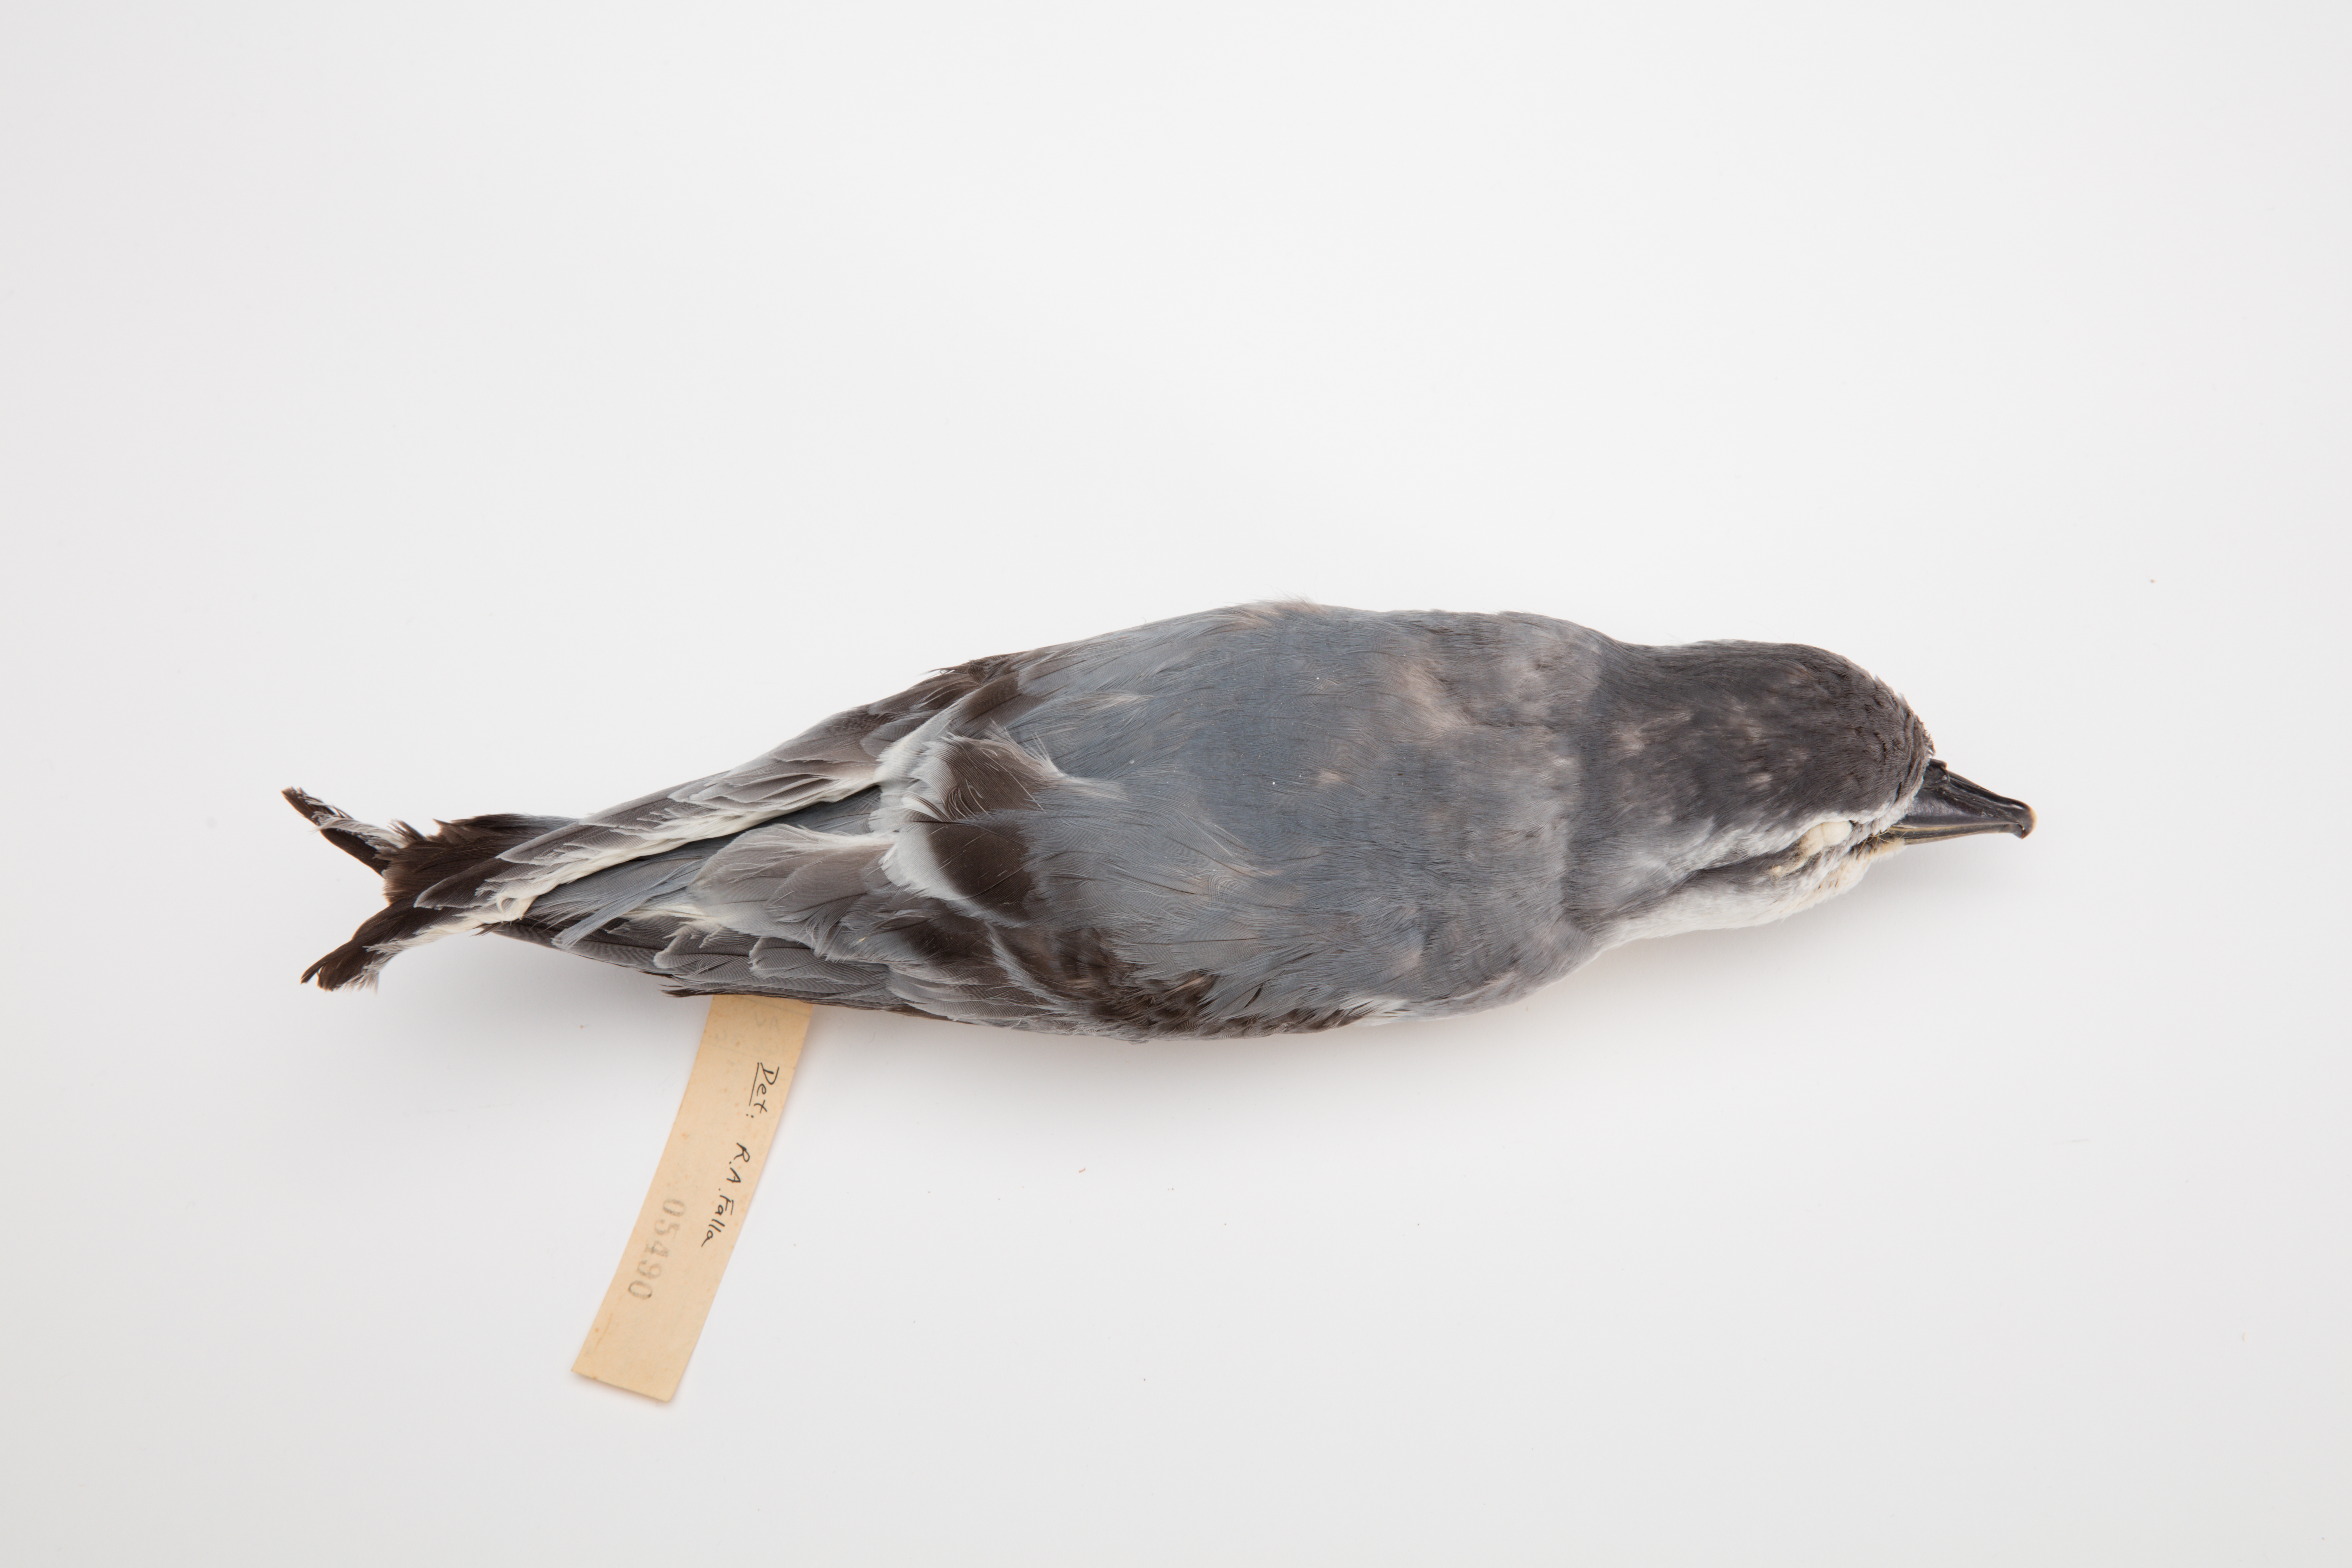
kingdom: Animalia
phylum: Chordata
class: Aves
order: Procellariiformes
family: Procellariidae
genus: Pachyptila
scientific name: Pachyptila salvini
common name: Salvin's prion
